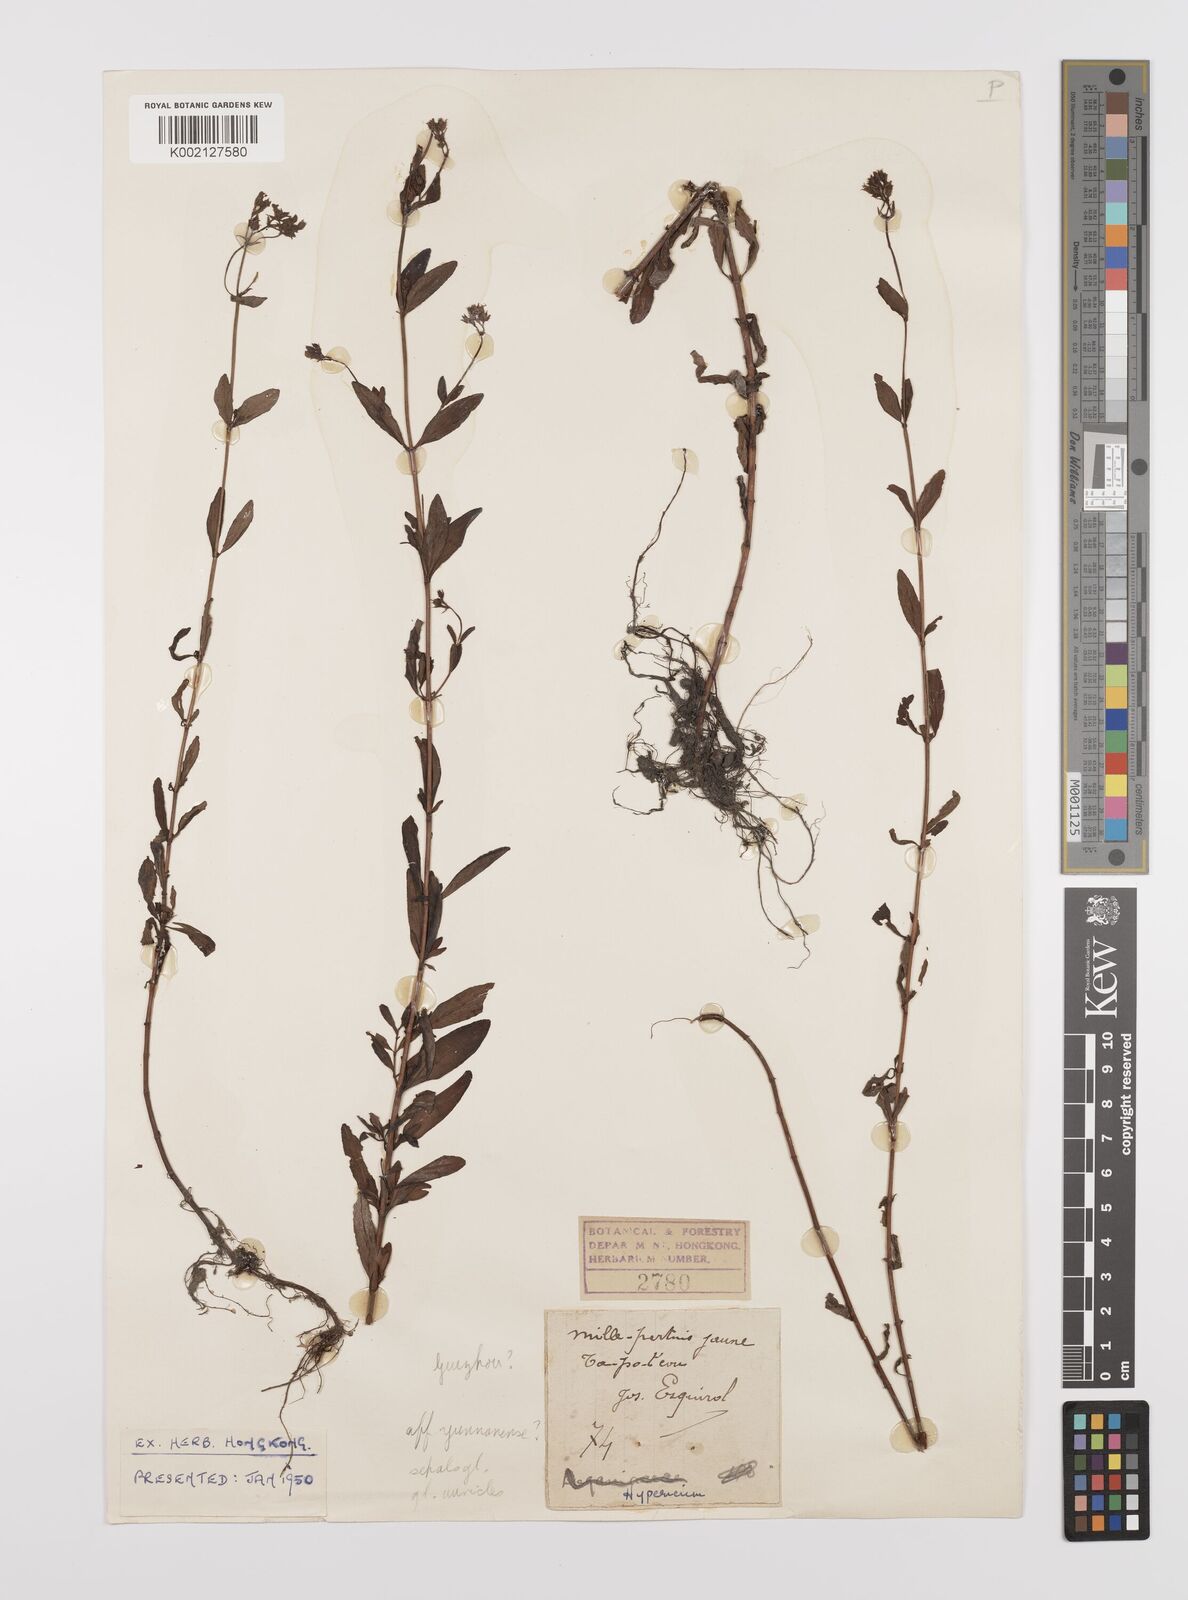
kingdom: Plantae
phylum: Tracheophyta
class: Magnoliopsida
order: Malpighiales
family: Hypericaceae
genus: Hypericum
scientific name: Hypericum petiolulatum
